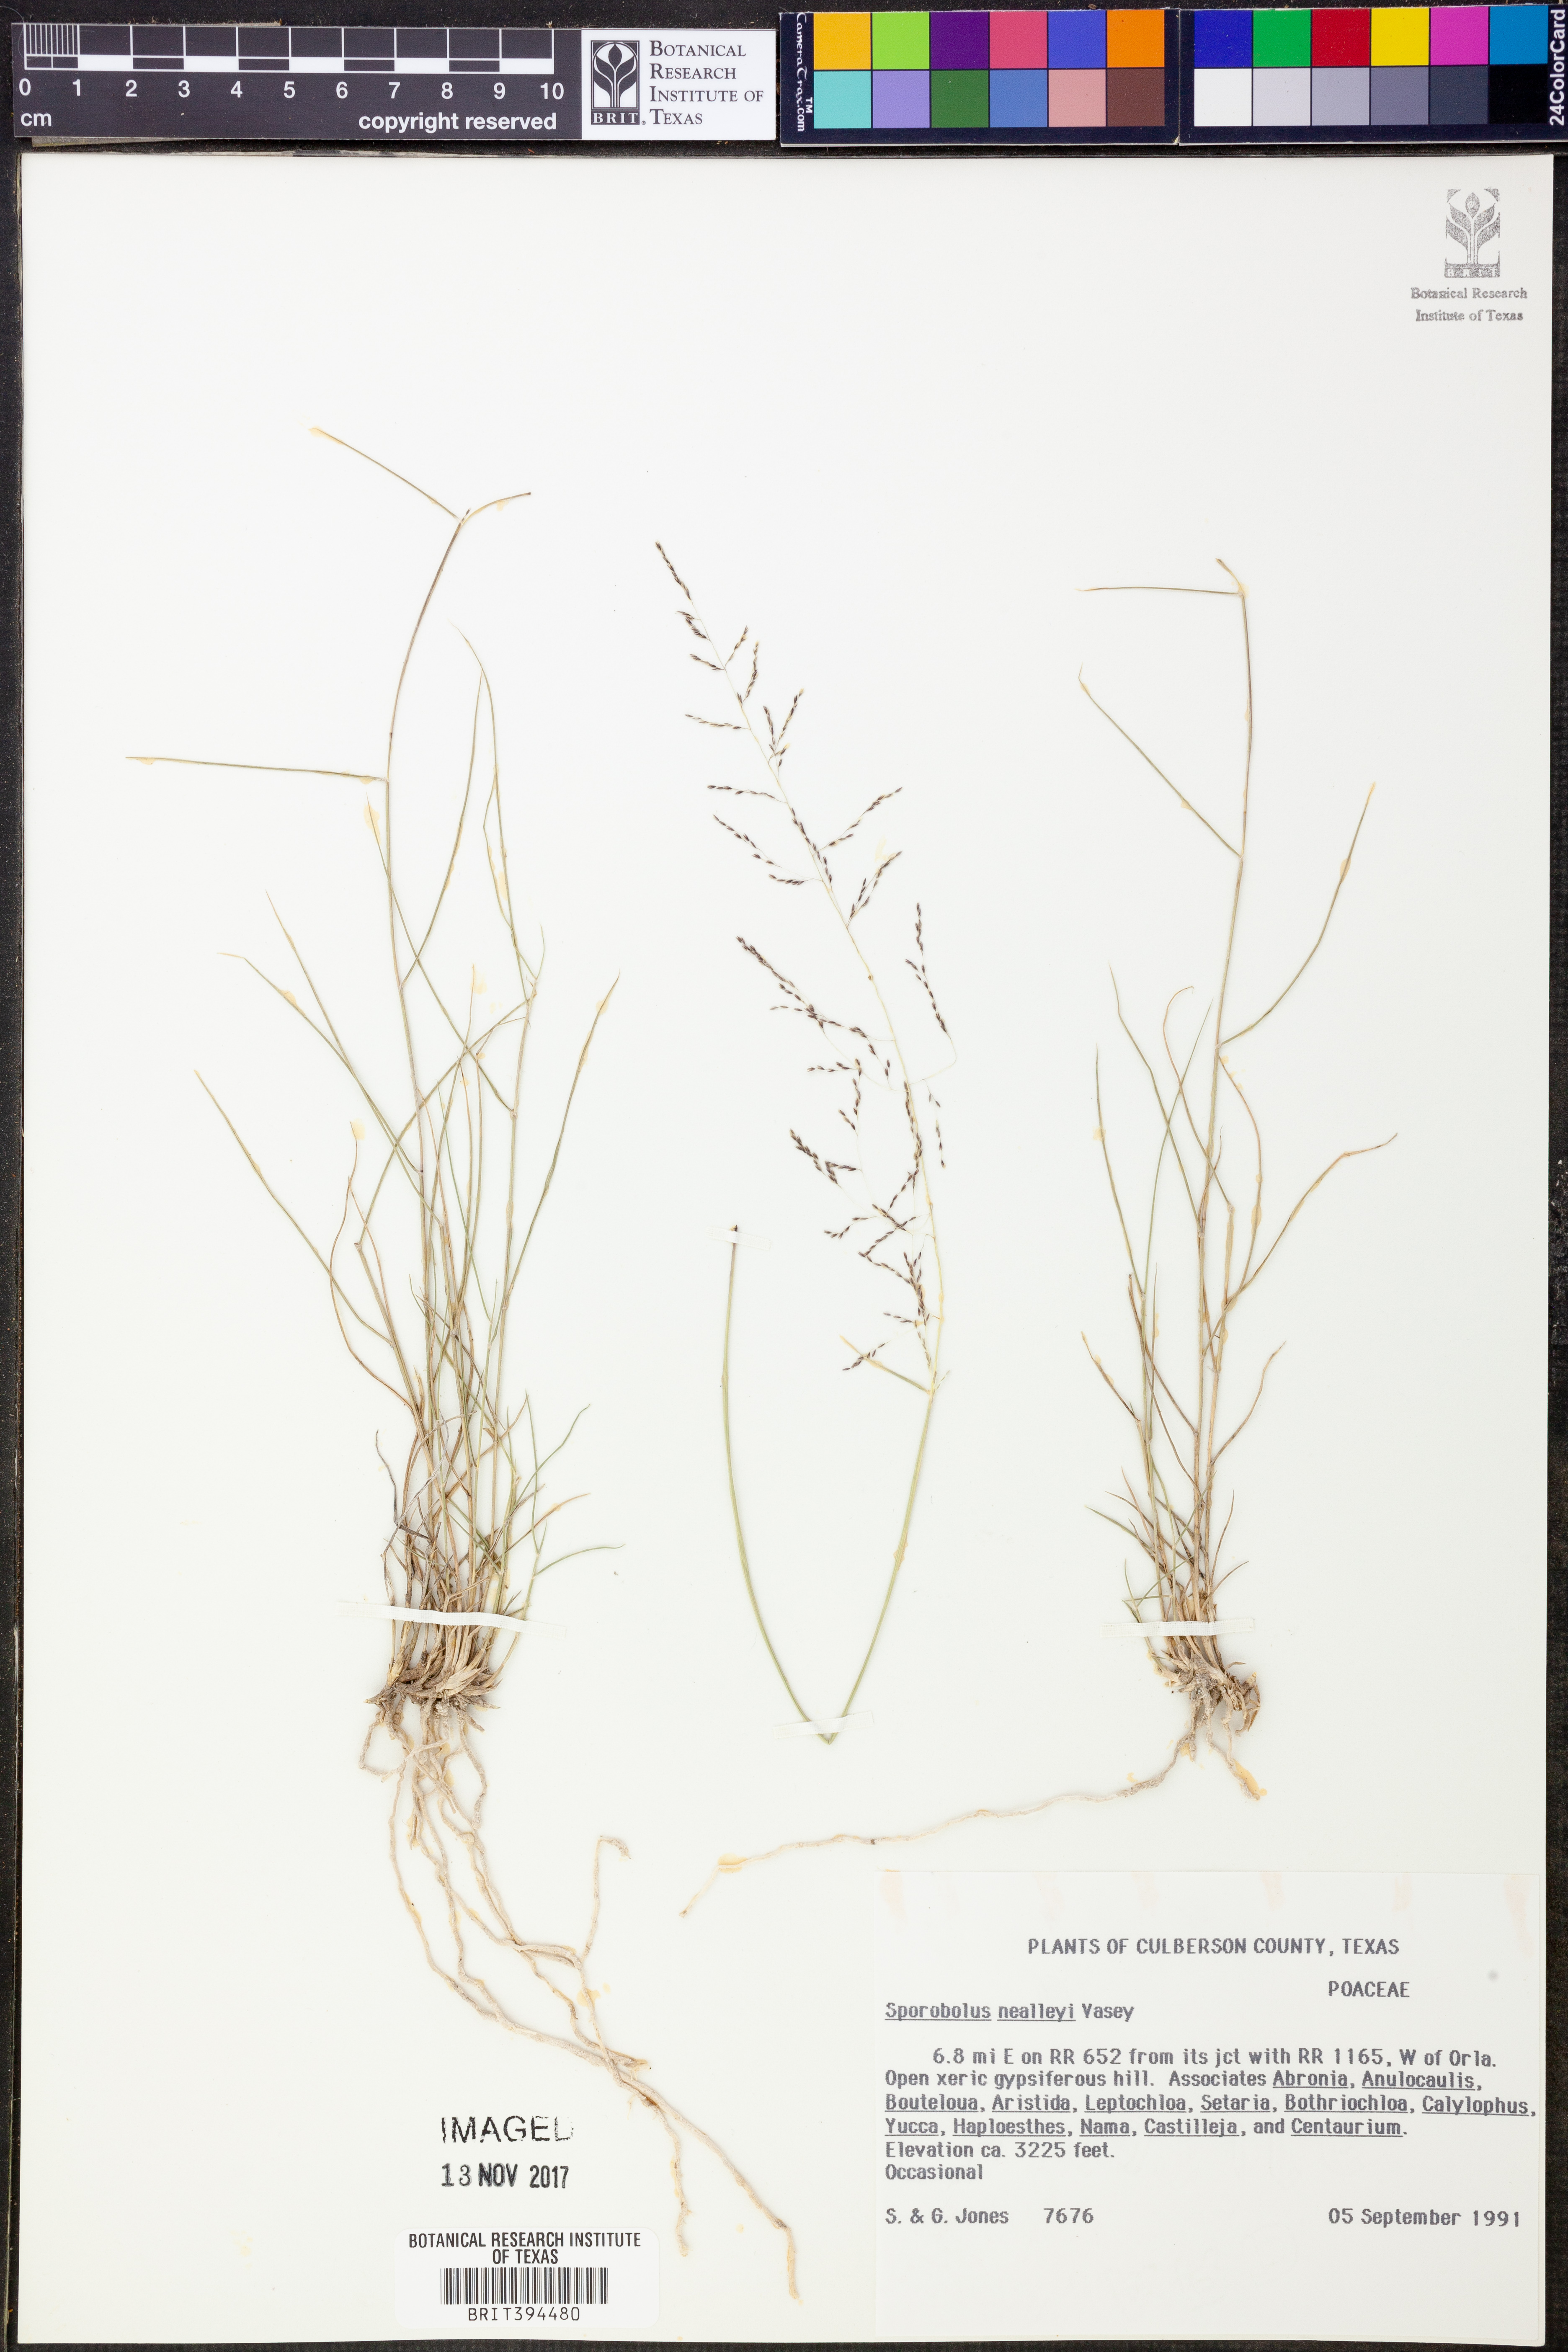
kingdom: Plantae
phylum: Tracheophyta
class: Liliopsida
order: Poales
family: Poaceae
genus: Sporobolus
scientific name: Sporobolus nealleyi
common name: Gyp grass
